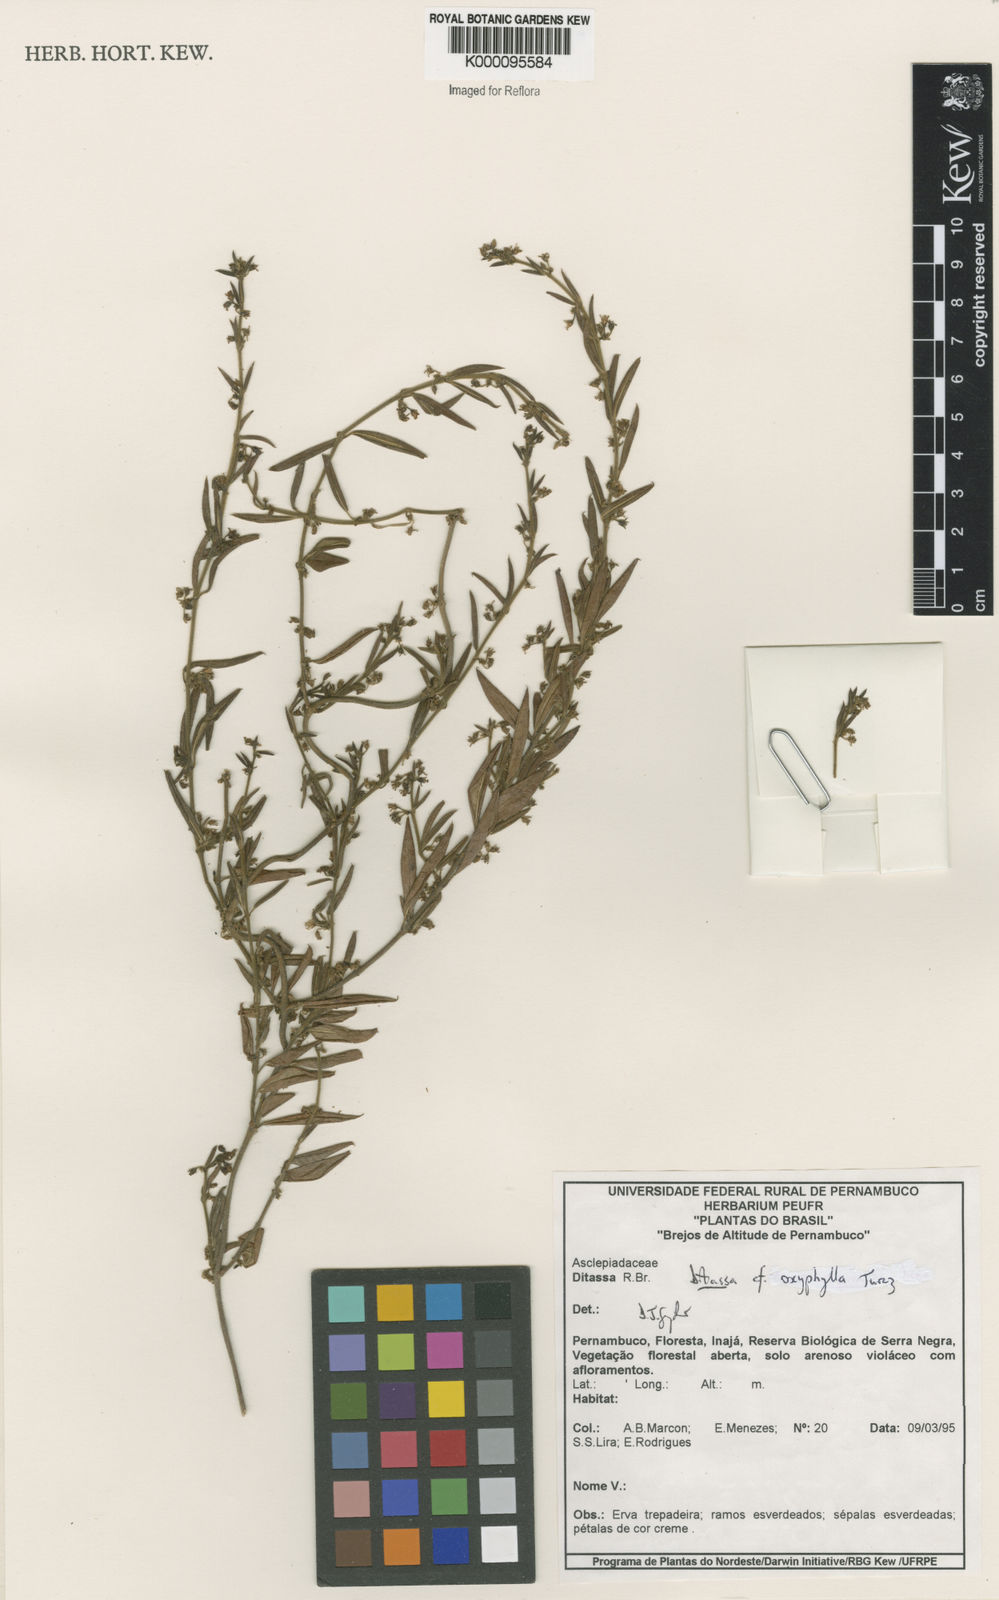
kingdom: Plantae
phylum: Tracheophyta
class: Magnoliopsida
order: Gentianales
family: Apocynaceae
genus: Ditassa
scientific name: Ditassa oxyphylla
